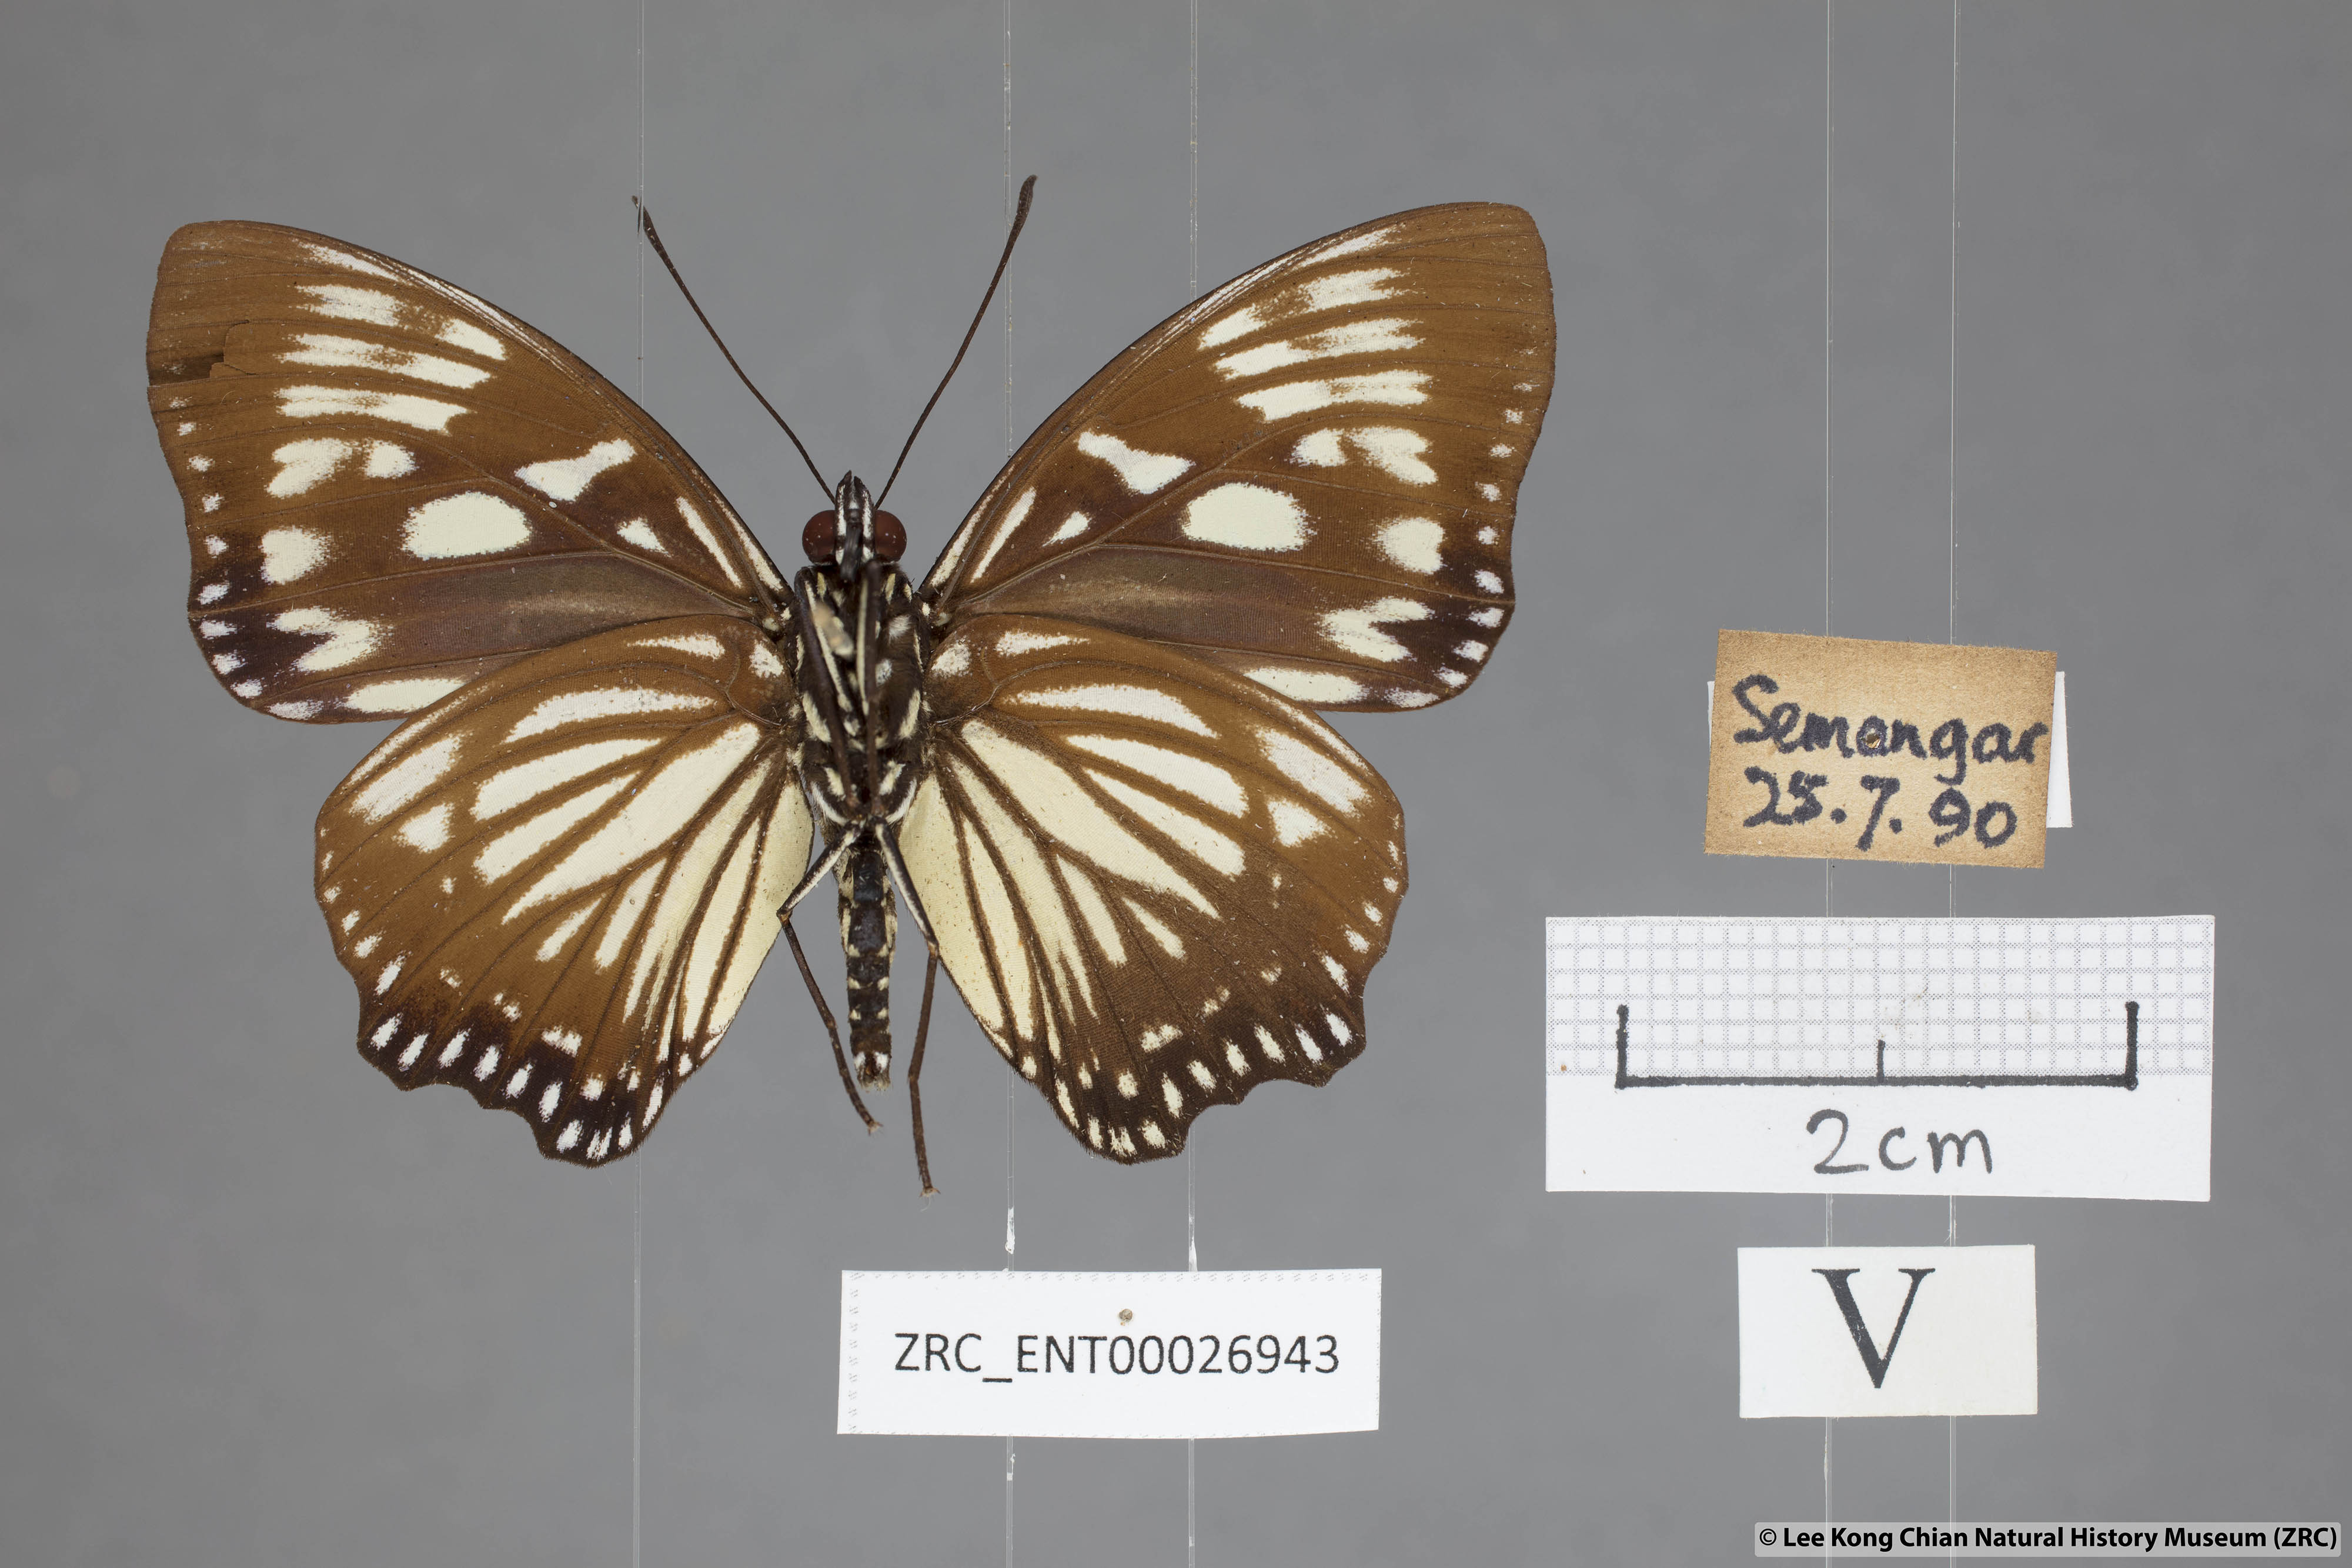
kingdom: Animalia
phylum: Arthropoda
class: Insecta
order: Lepidoptera
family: Nymphalidae
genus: Euripus
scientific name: Euripus nyctelius
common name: Courtesan
